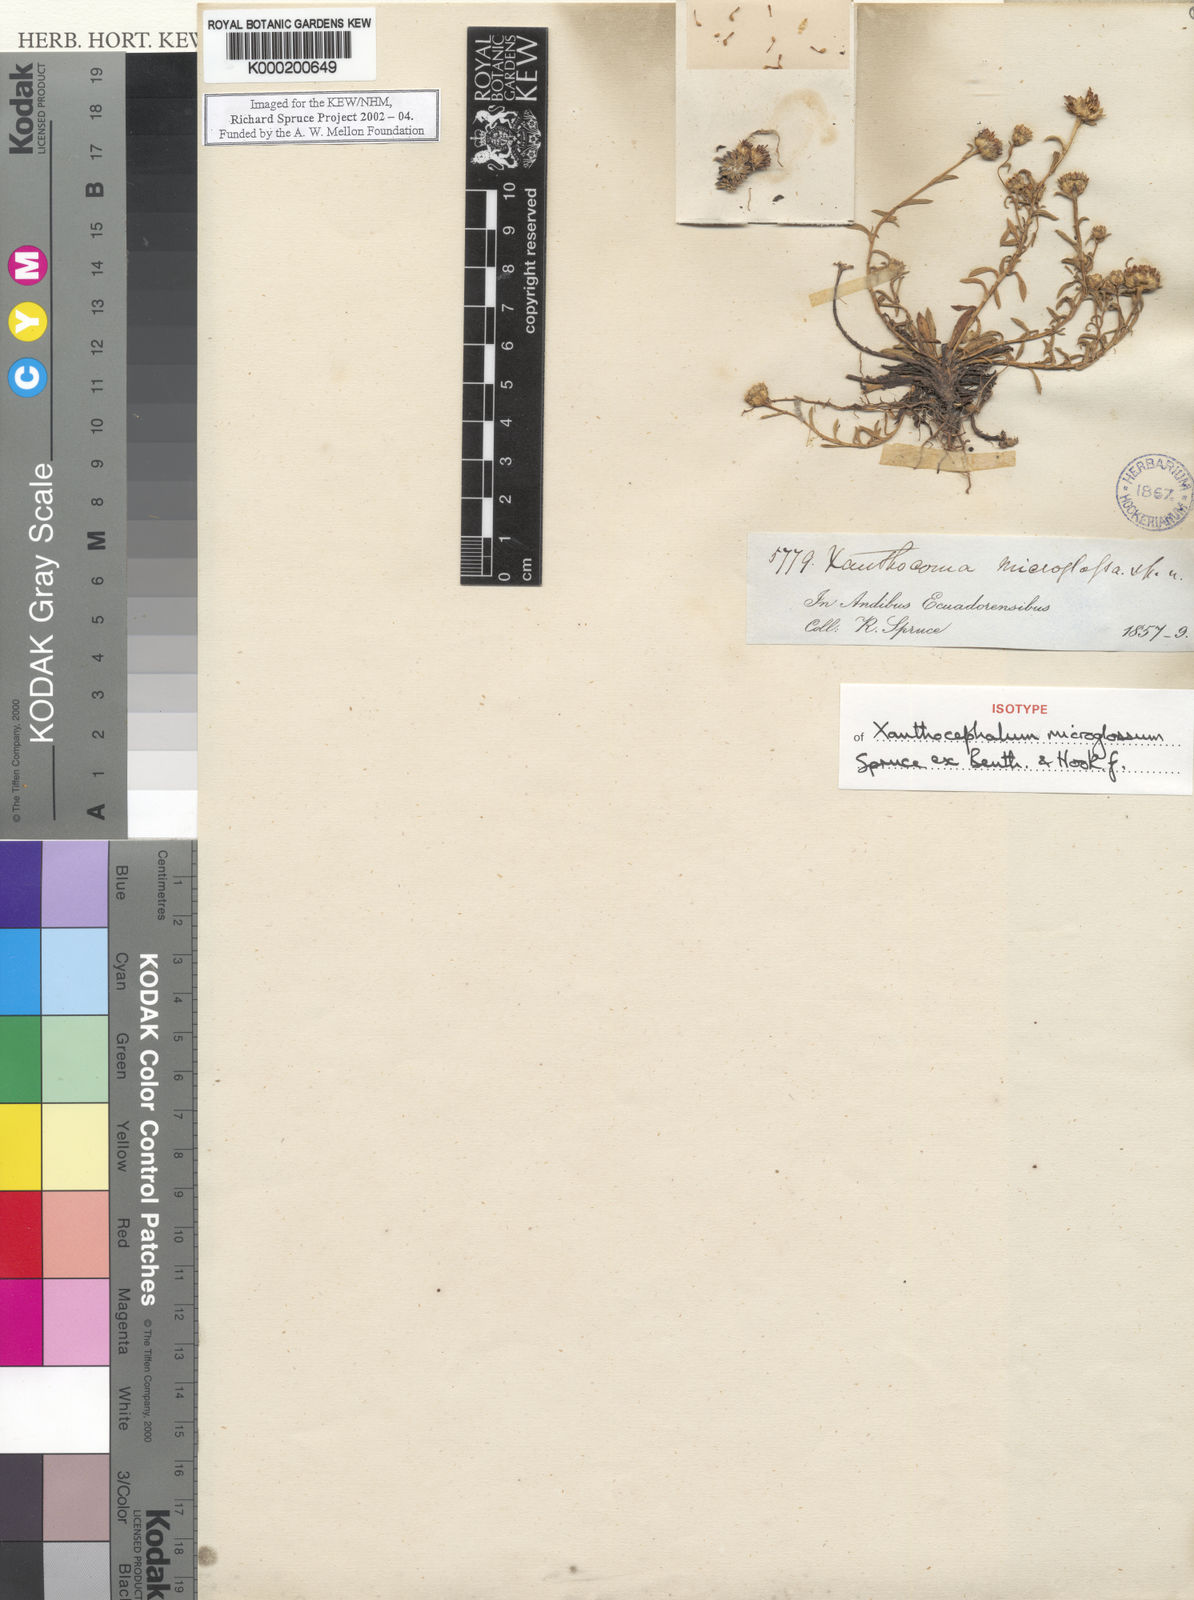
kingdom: Plantae
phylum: Tracheophyta
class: Magnoliopsida
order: Asterales
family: Asteraceae
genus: Xanthocephalum
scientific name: Xanthocephalum humile
